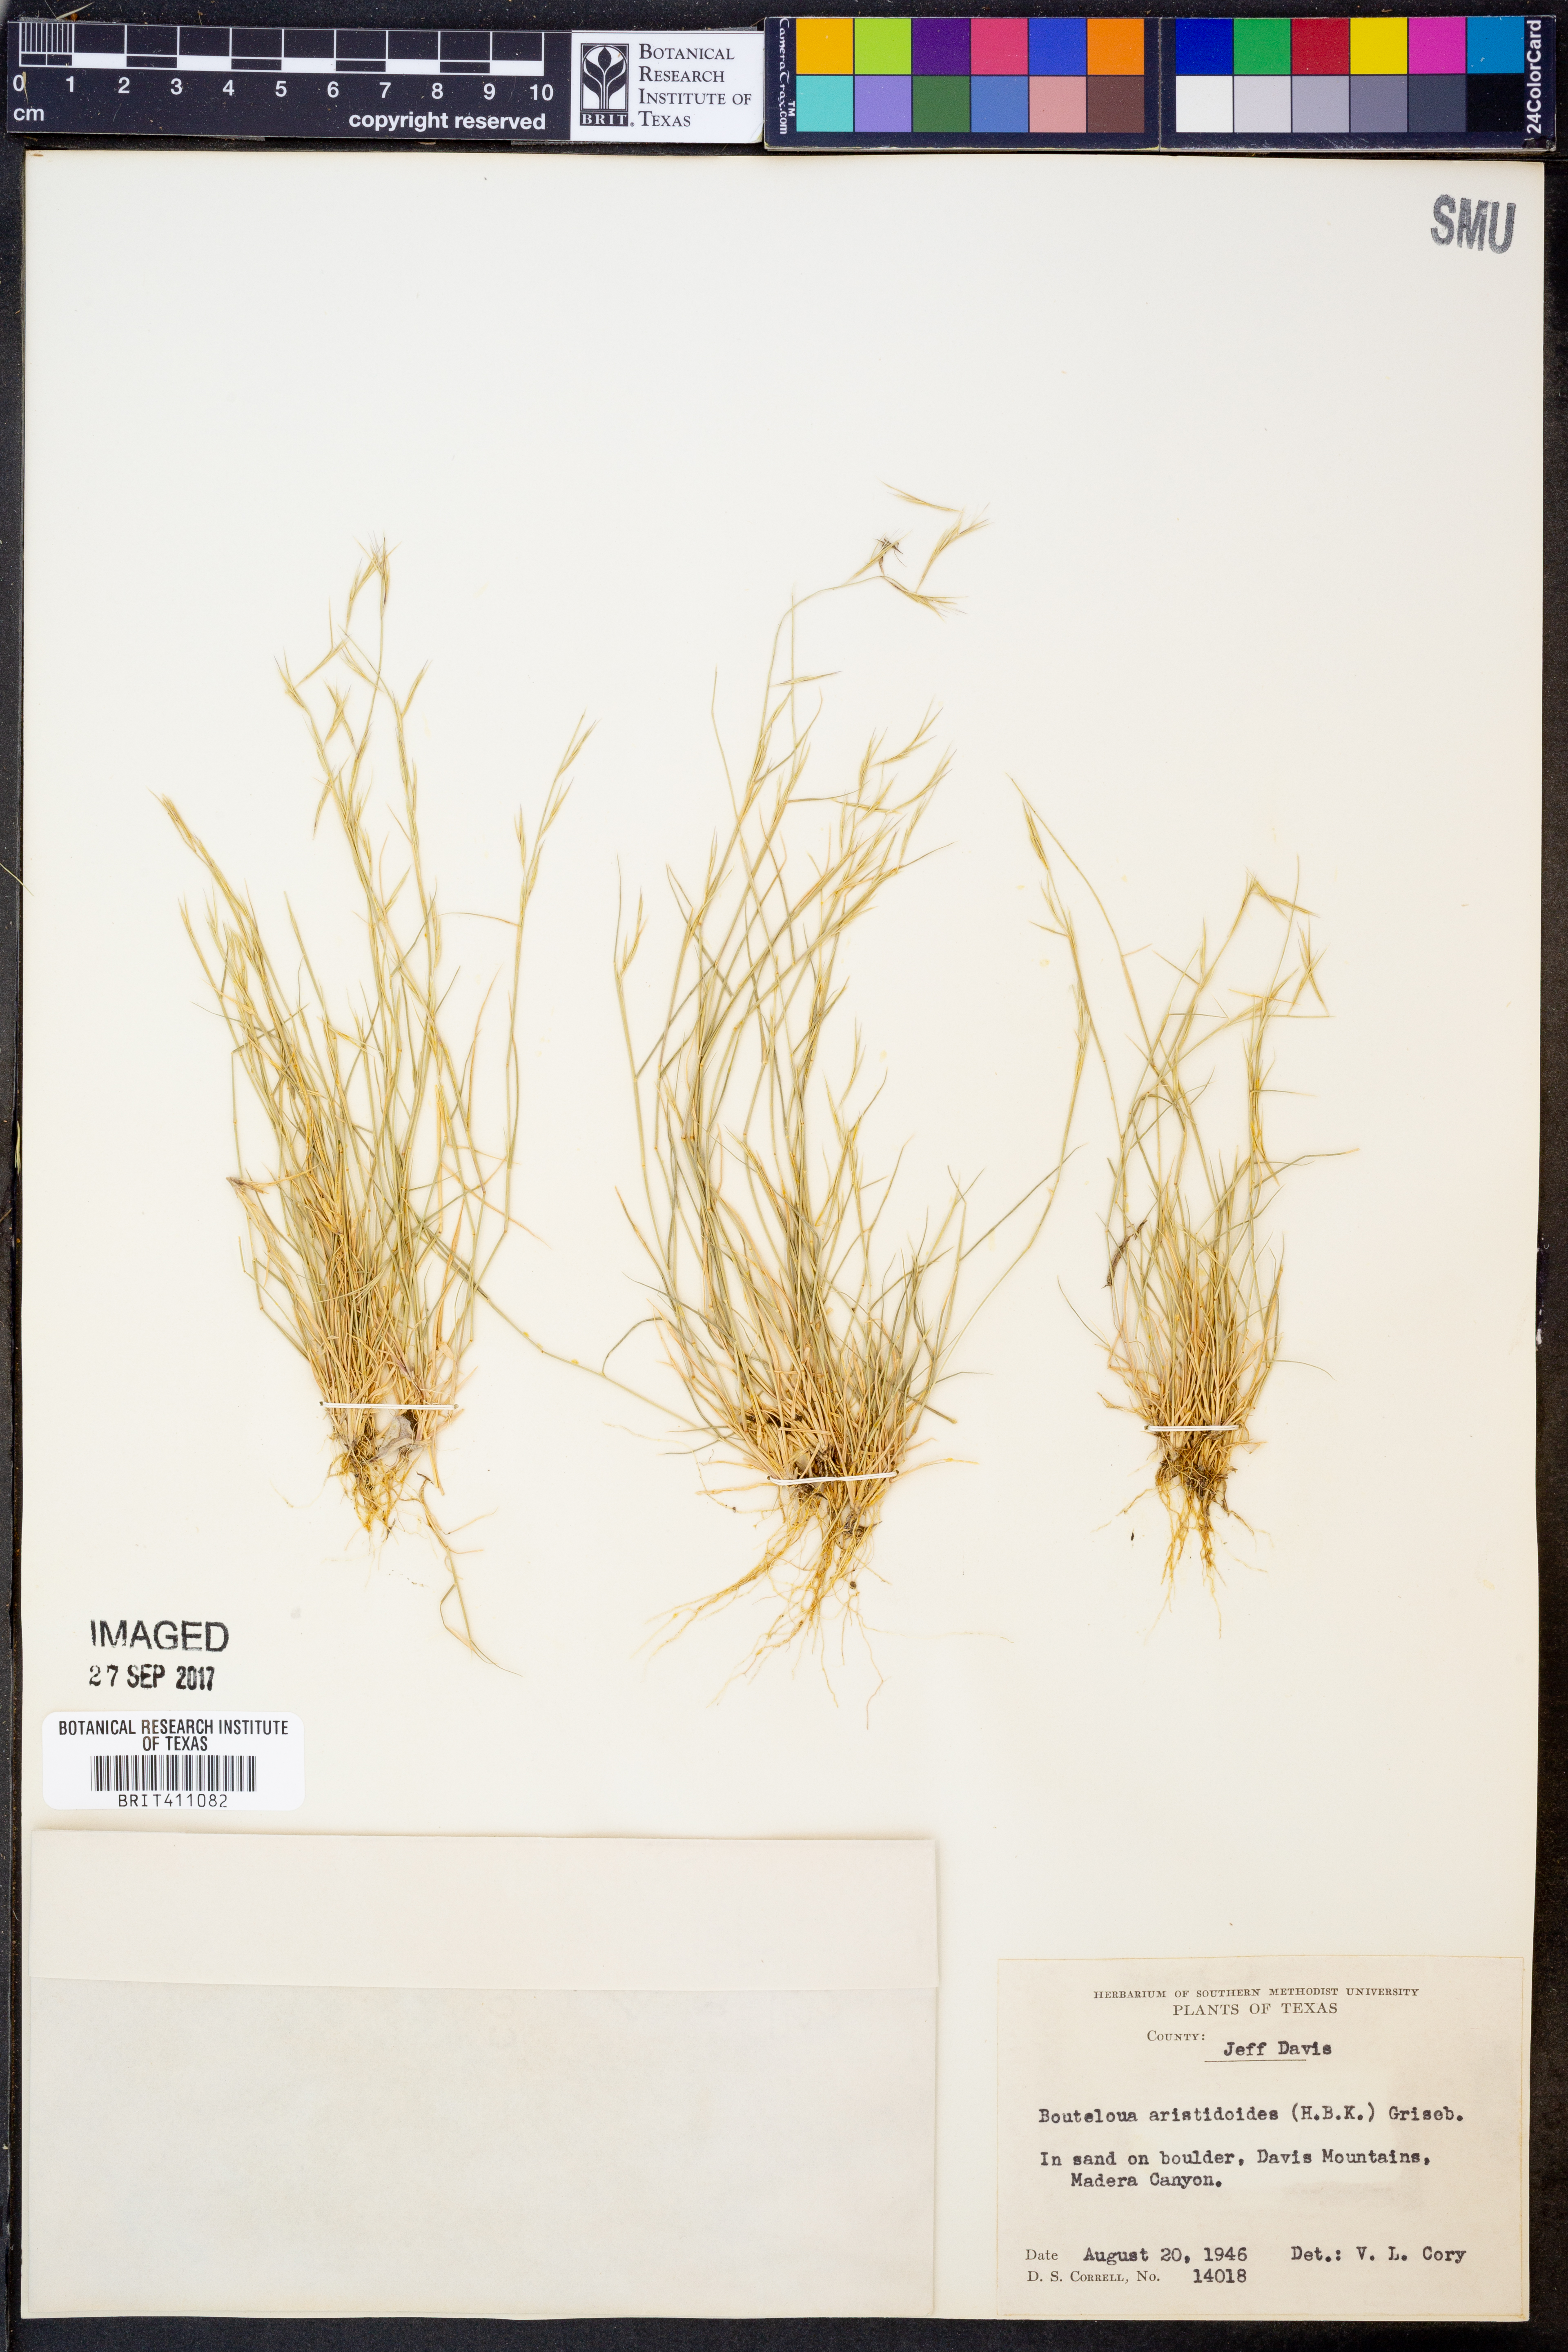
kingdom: Plantae
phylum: Tracheophyta
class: Liliopsida
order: Poales
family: Poaceae
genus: Bouteloua
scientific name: Bouteloua aristidoides
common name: Needle grama
